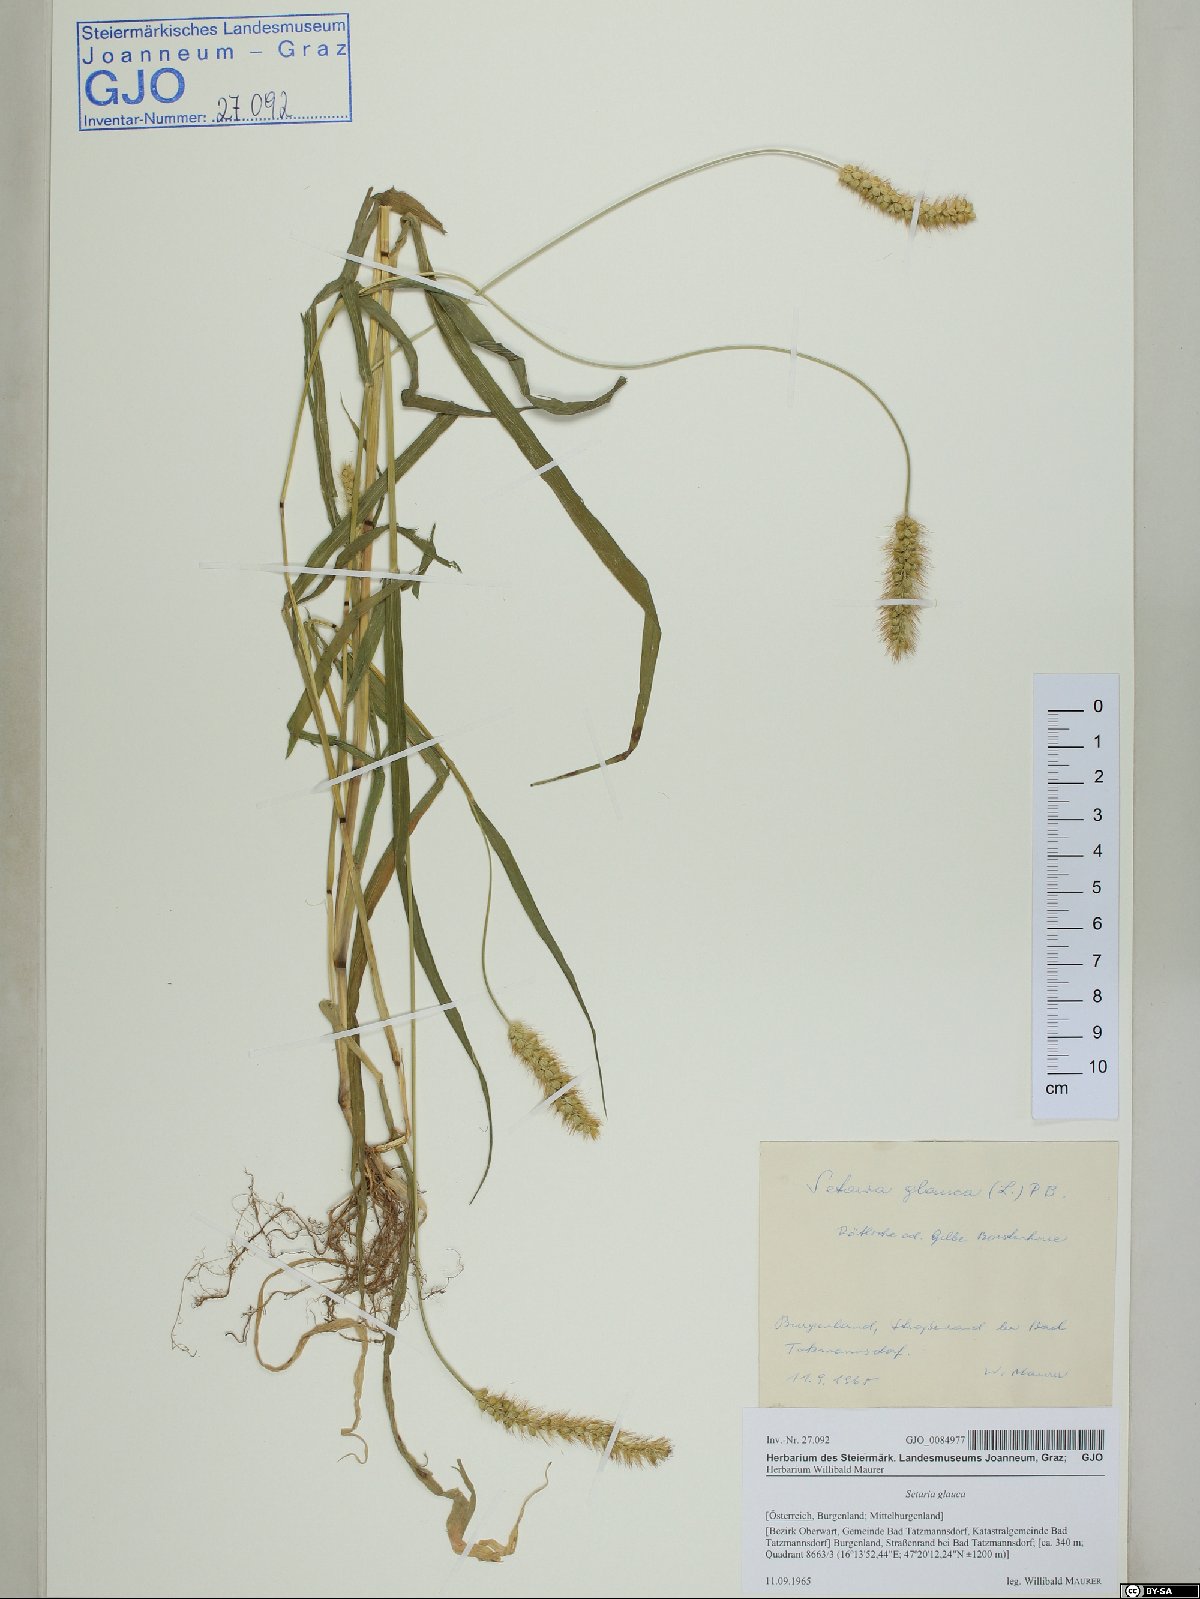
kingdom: Plantae
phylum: Tracheophyta
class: Liliopsida
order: Poales
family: Poaceae
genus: Cenchrus
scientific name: Cenchrus americanus
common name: Pearl millet
